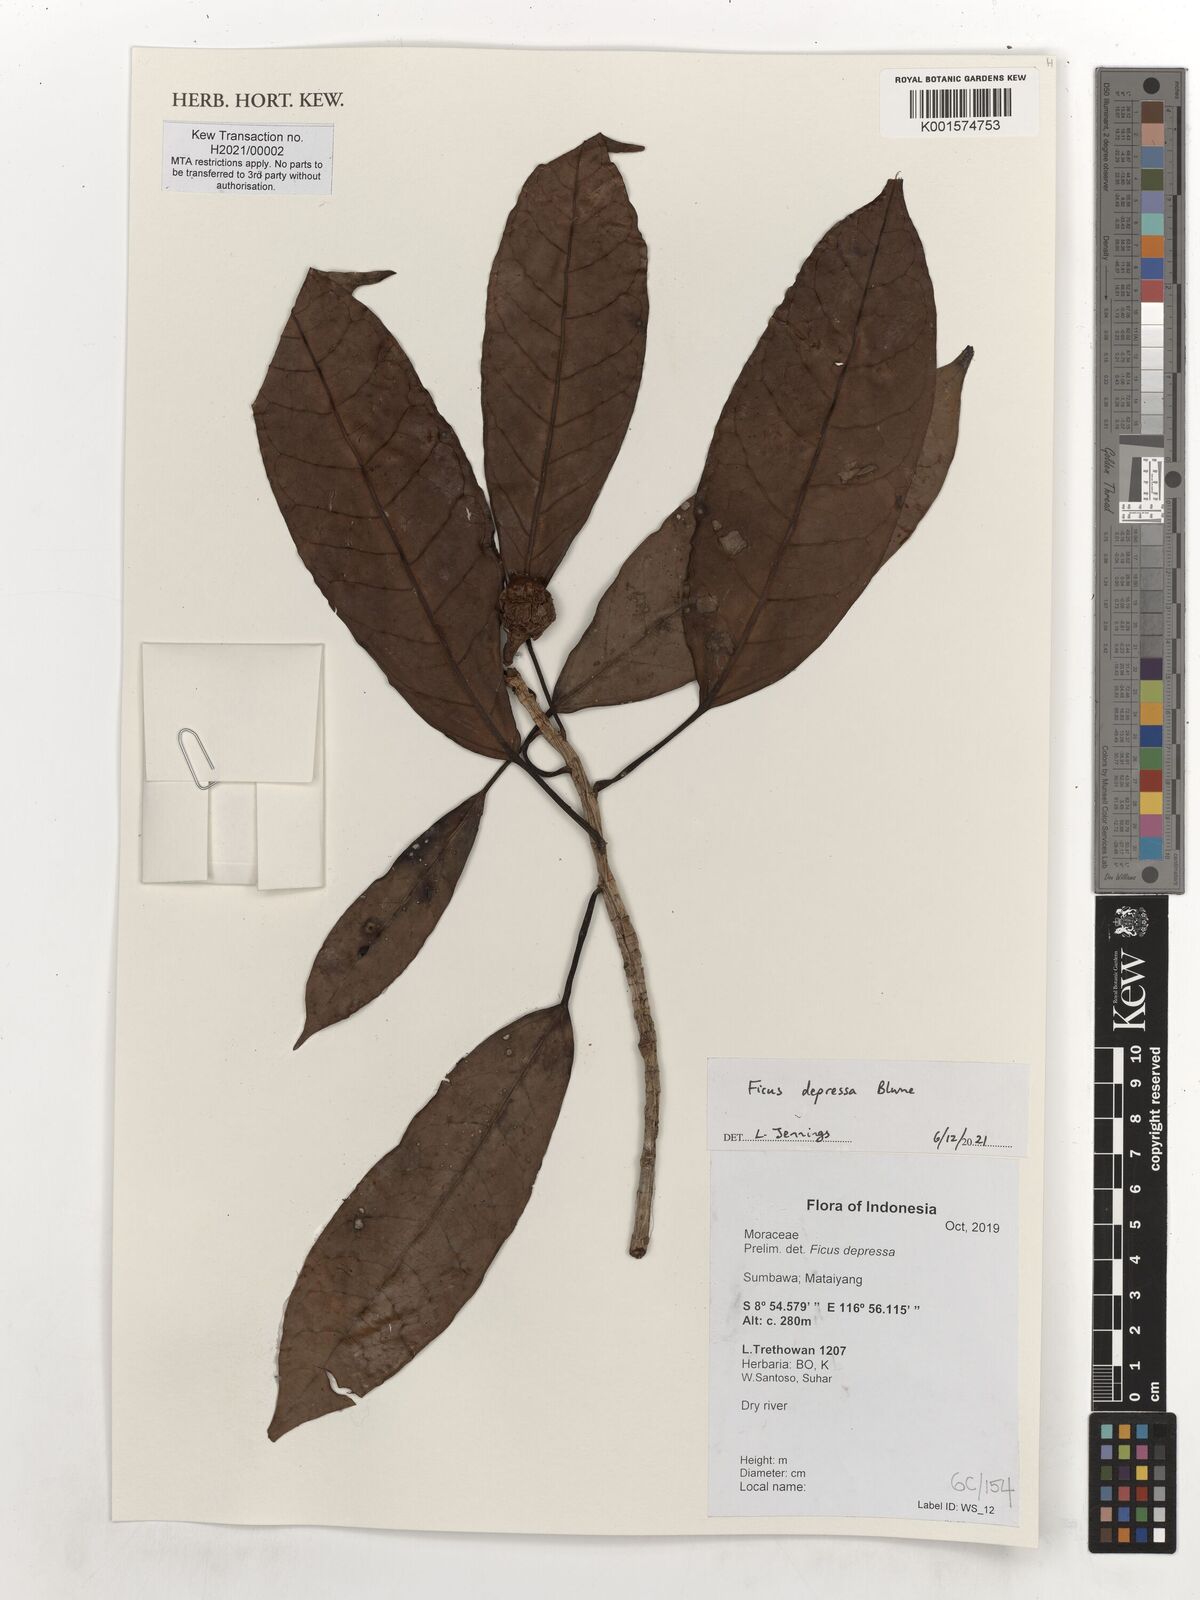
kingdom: Plantae
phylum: Tracheophyta
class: Magnoliopsida
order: Rosales
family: Moraceae
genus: Ficus
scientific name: Ficus depressa
